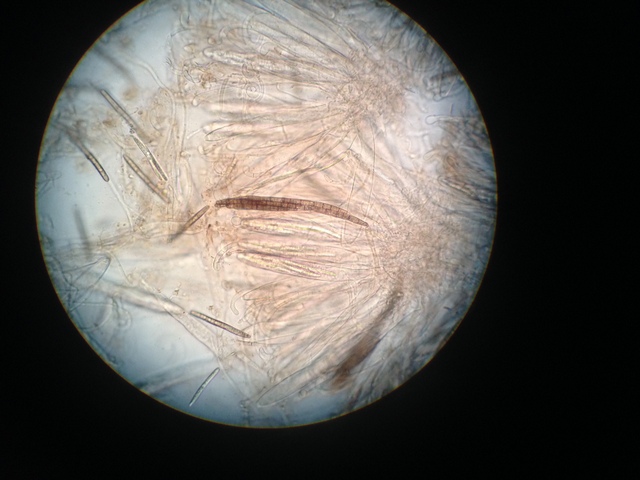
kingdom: Fungi
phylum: Ascomycota
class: Geoglossomycetes
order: Geoglossales
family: Geoglossaceae
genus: Hemileucoglossum
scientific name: Hemileucoglossum elongatum
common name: småsporet jordtunge
